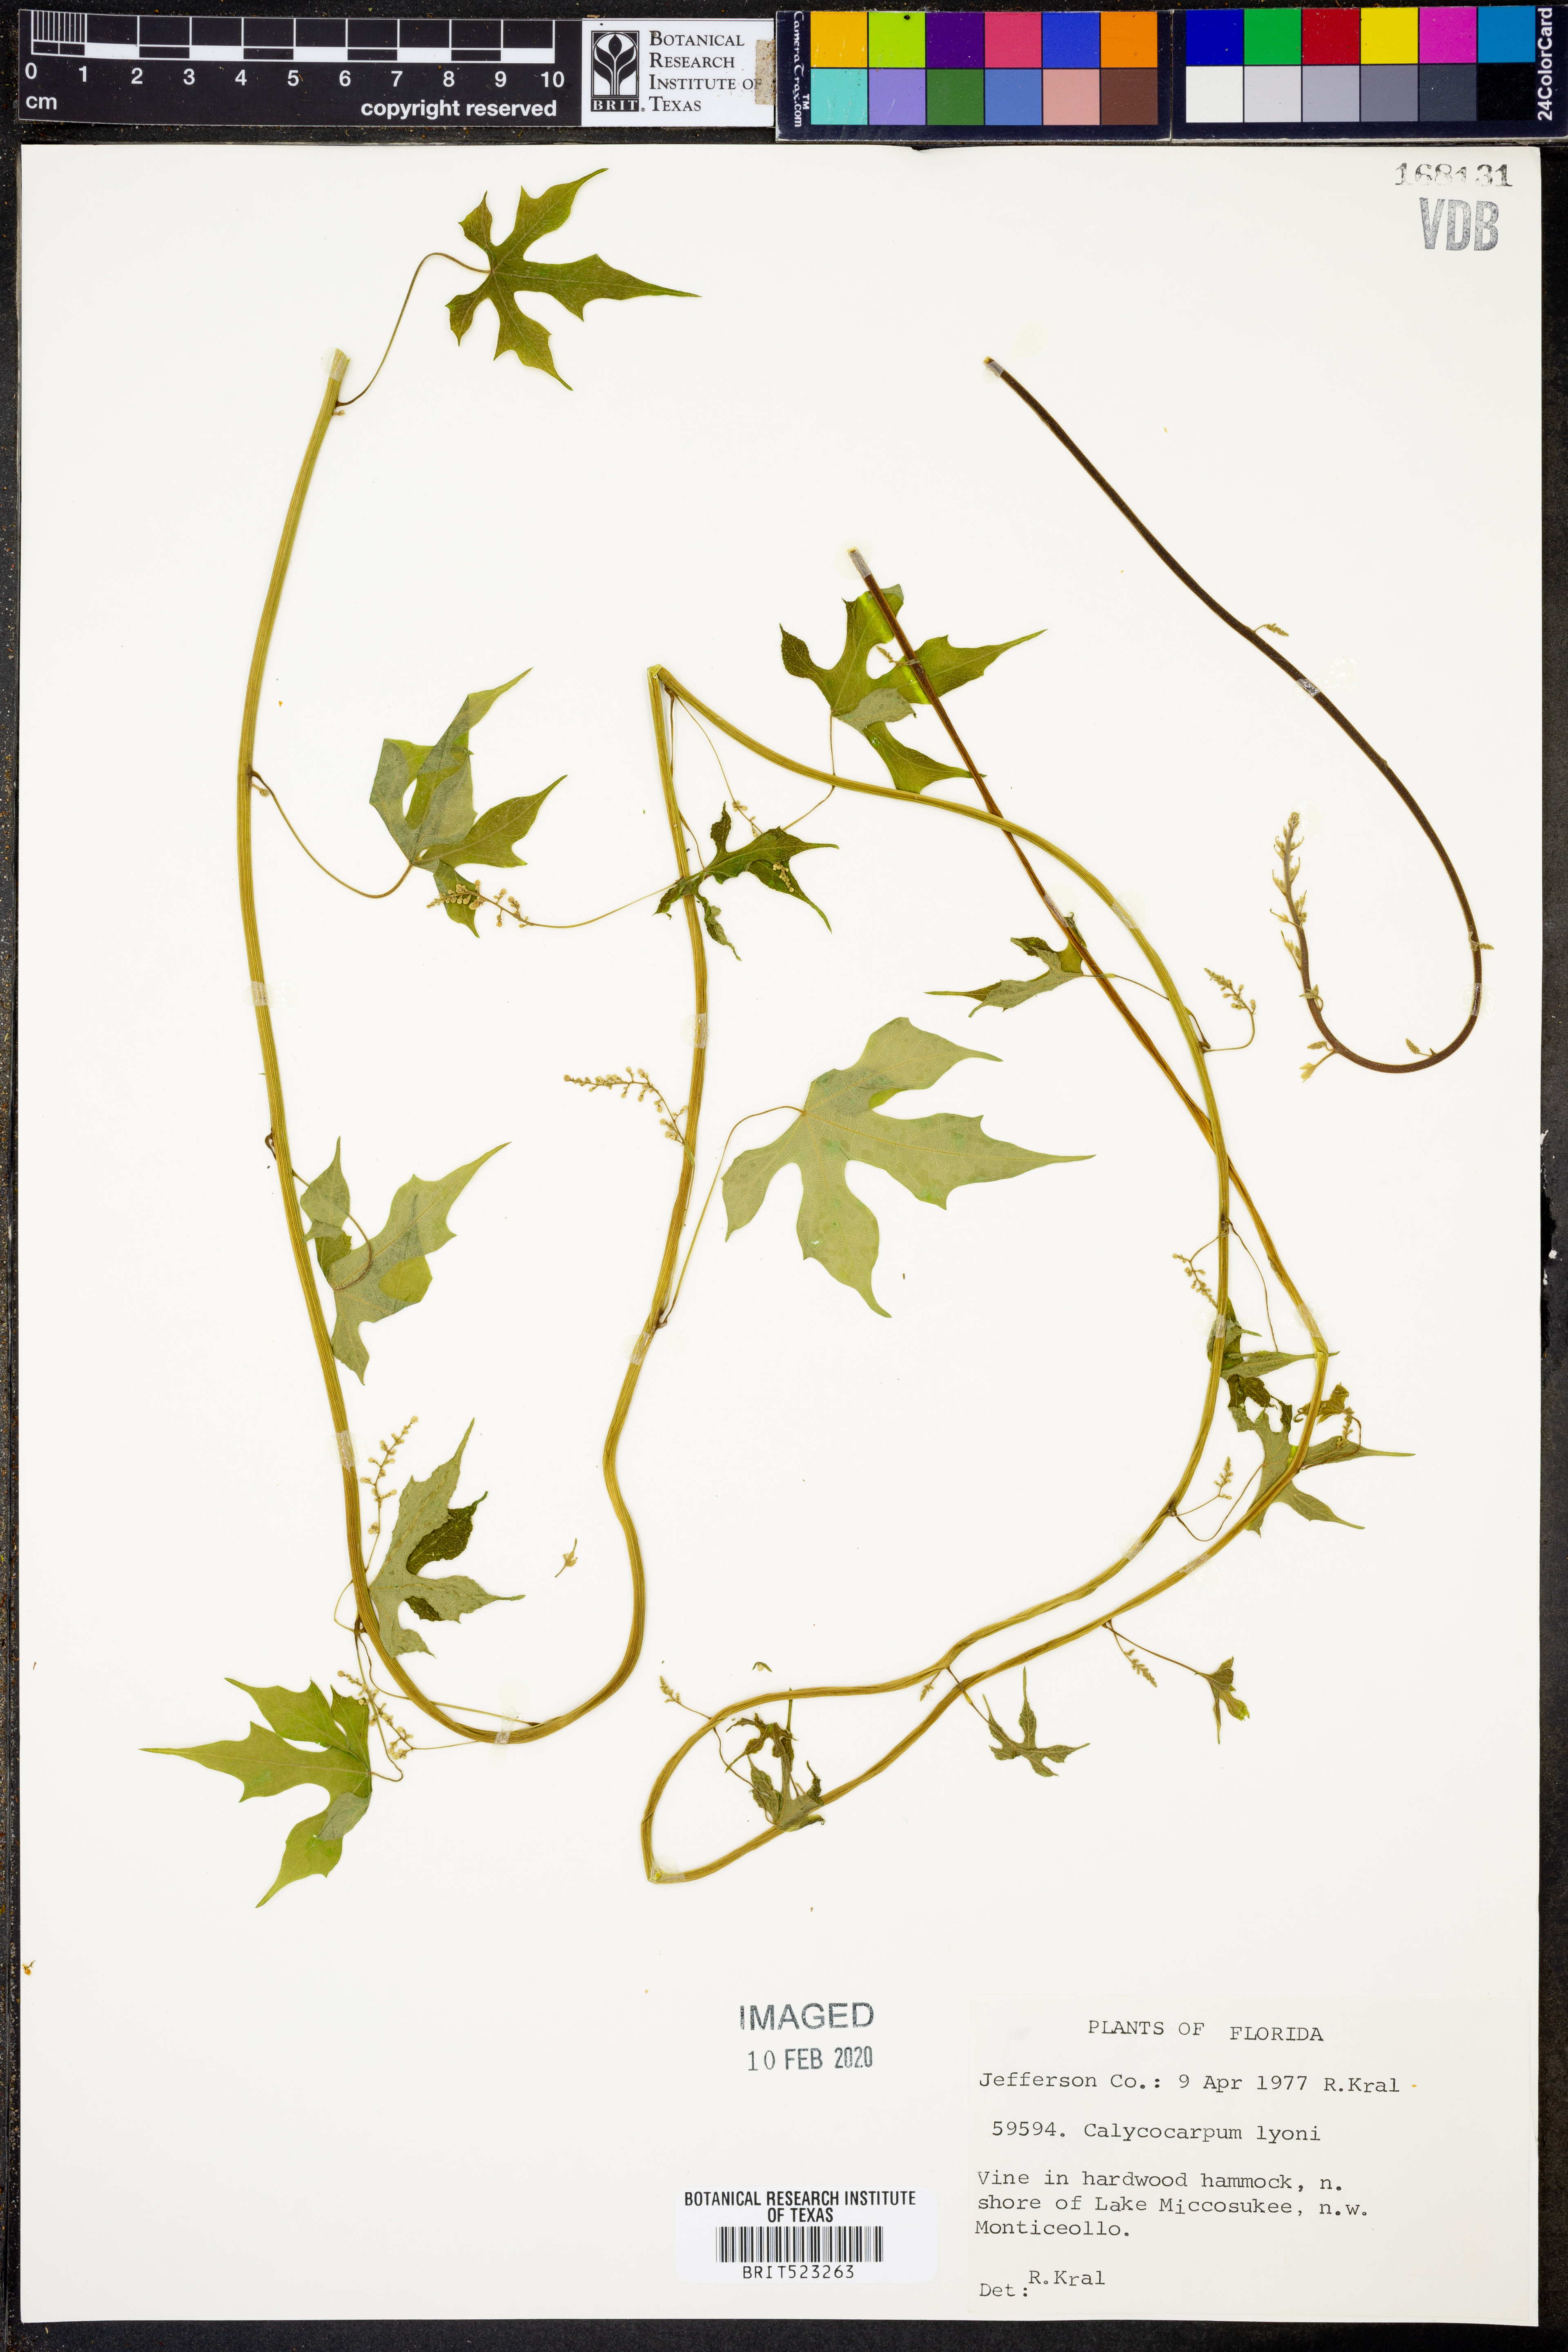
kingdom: Plantae
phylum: Tracheophyta
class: Magnoliopsida
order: Ranunculales
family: Menispermaceae
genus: Calycocarpum
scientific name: Calycocarpum lyonii
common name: Cupseed
